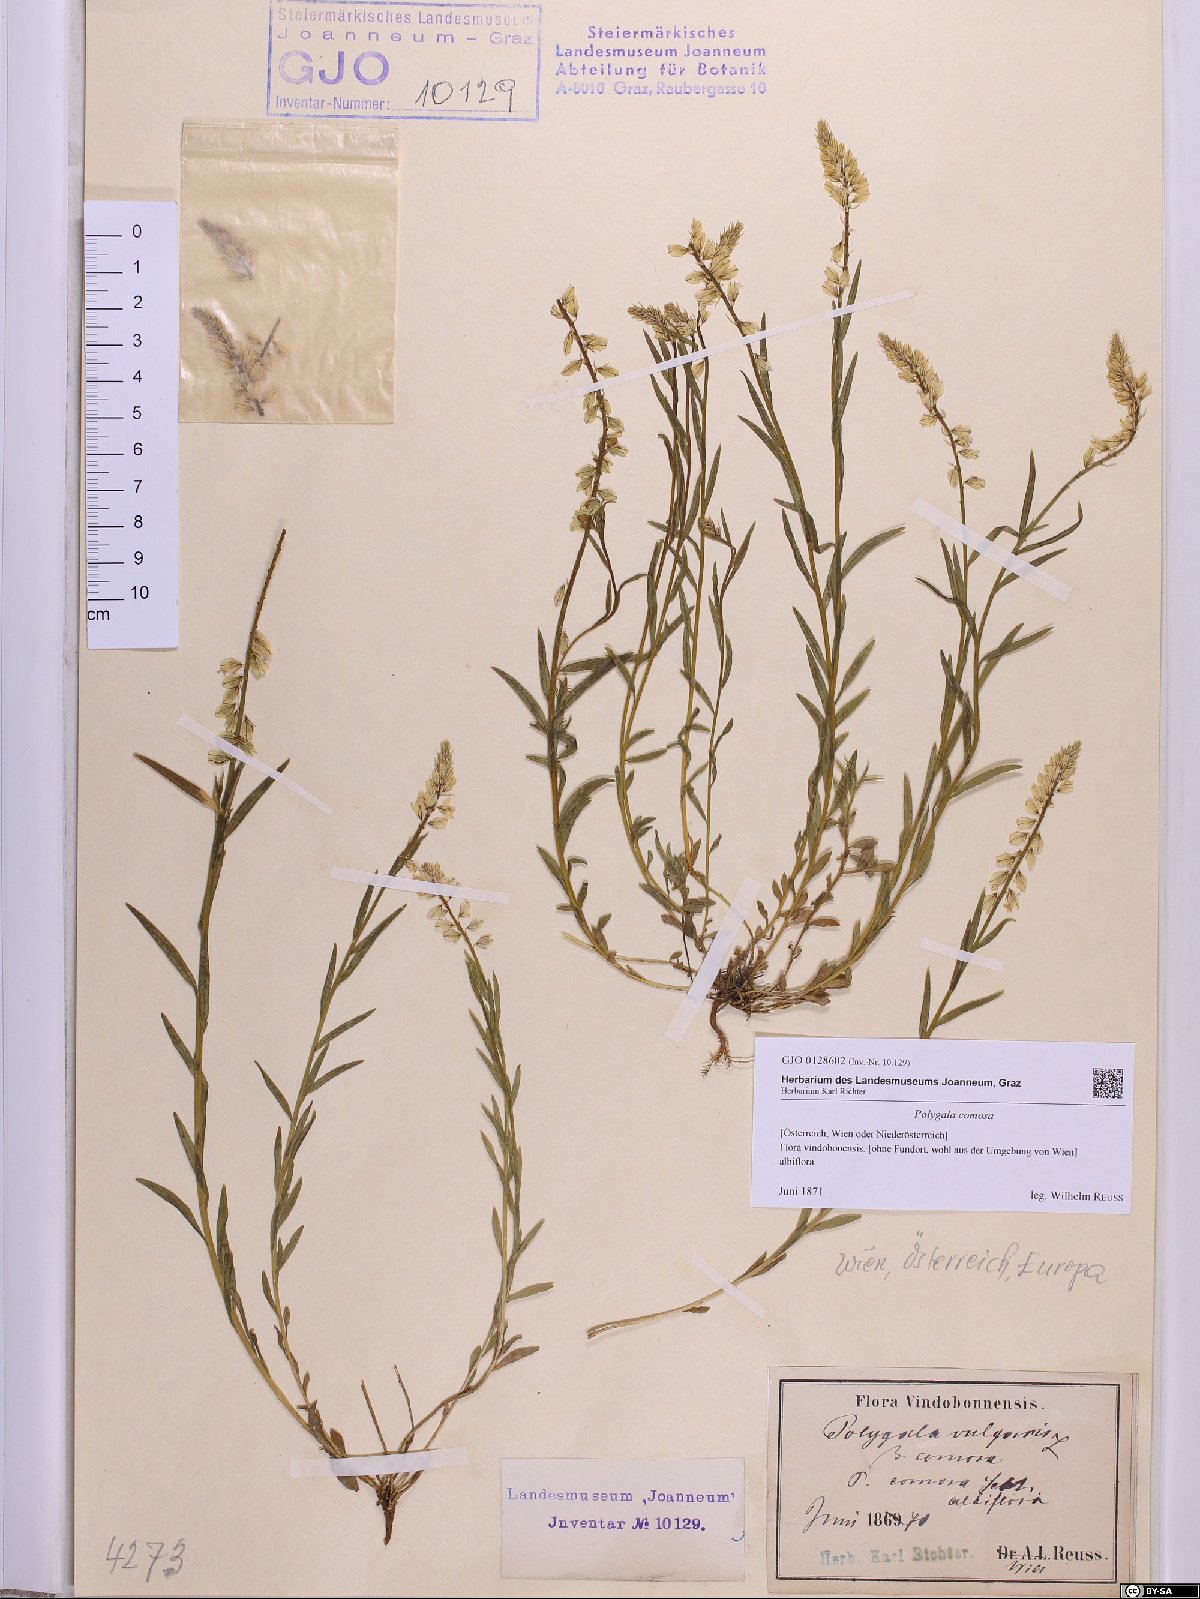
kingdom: Plantae
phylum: Tracheophyta
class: Magnoliopsida
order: Fabales
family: Polygalaceae
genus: Polygala
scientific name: Polygala comosa
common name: Tufted milkwort
